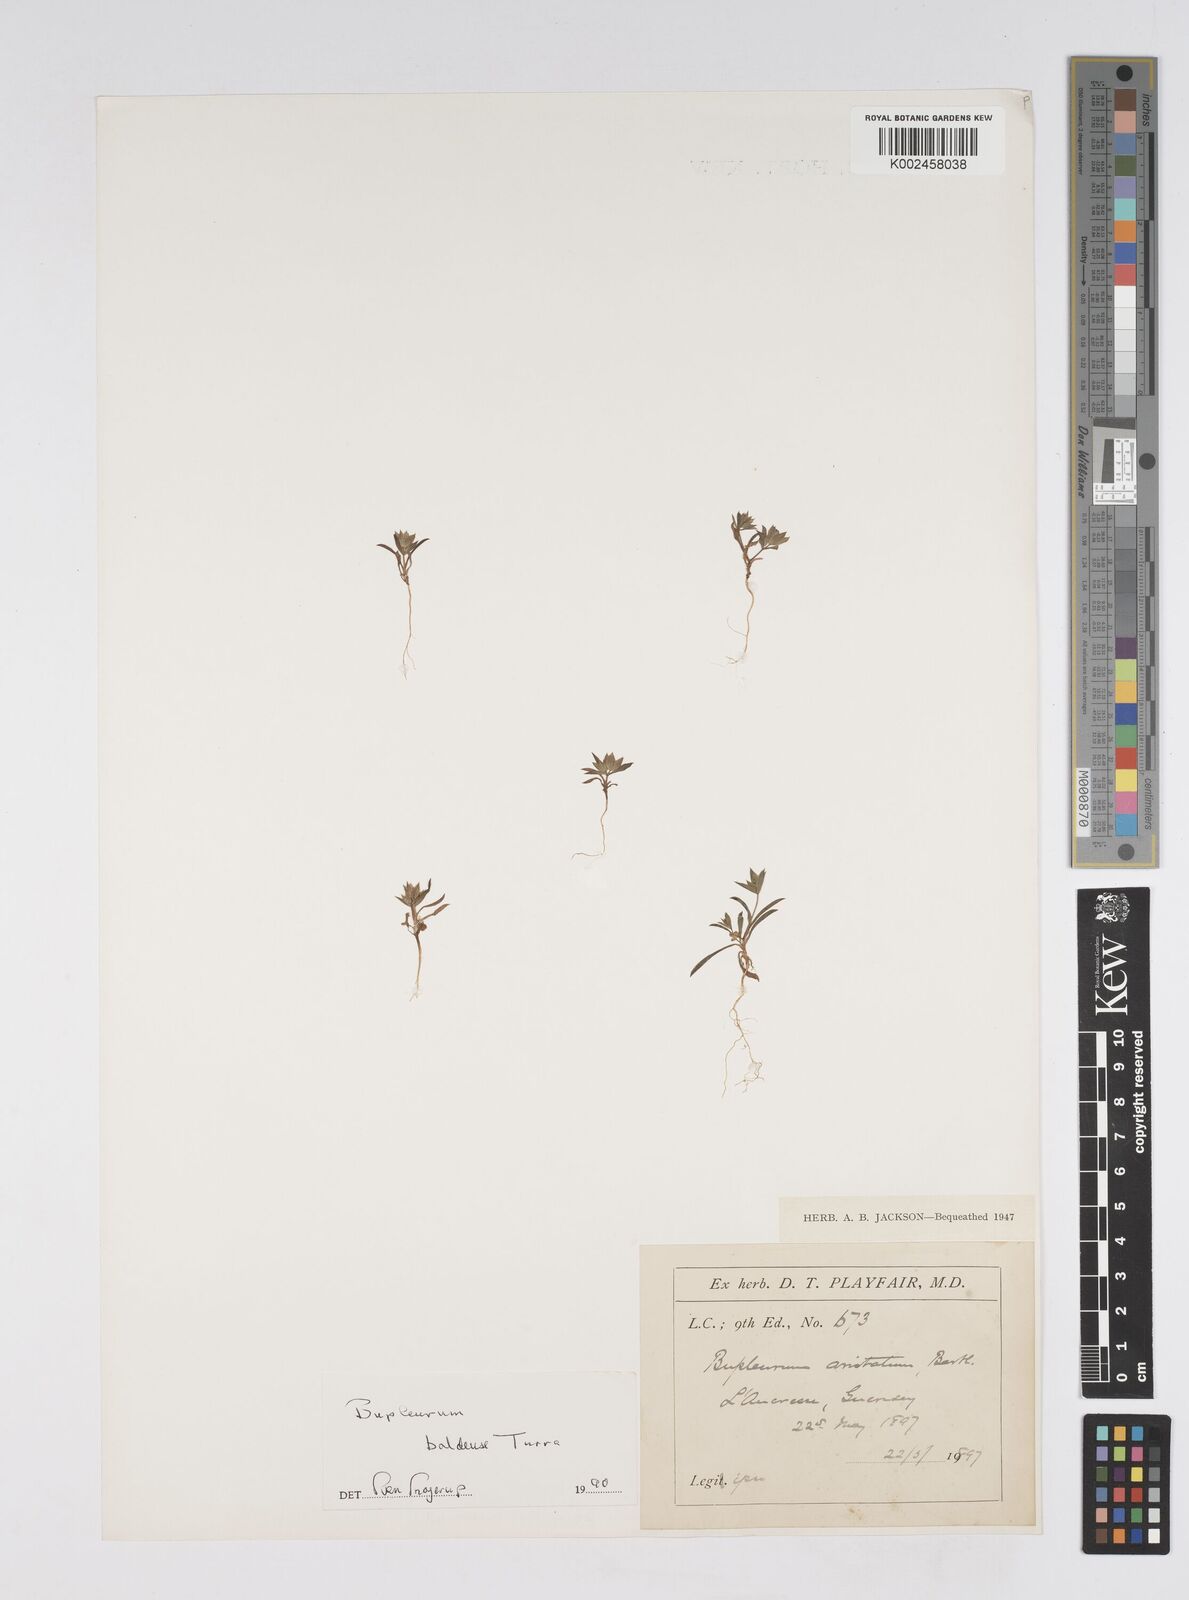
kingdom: Plantae
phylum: Tracheophyta
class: Magnoliopsida
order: Apiales
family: Apiaceae
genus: Bupleurum
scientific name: Bupleurum baldense
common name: Small hare's-ear
